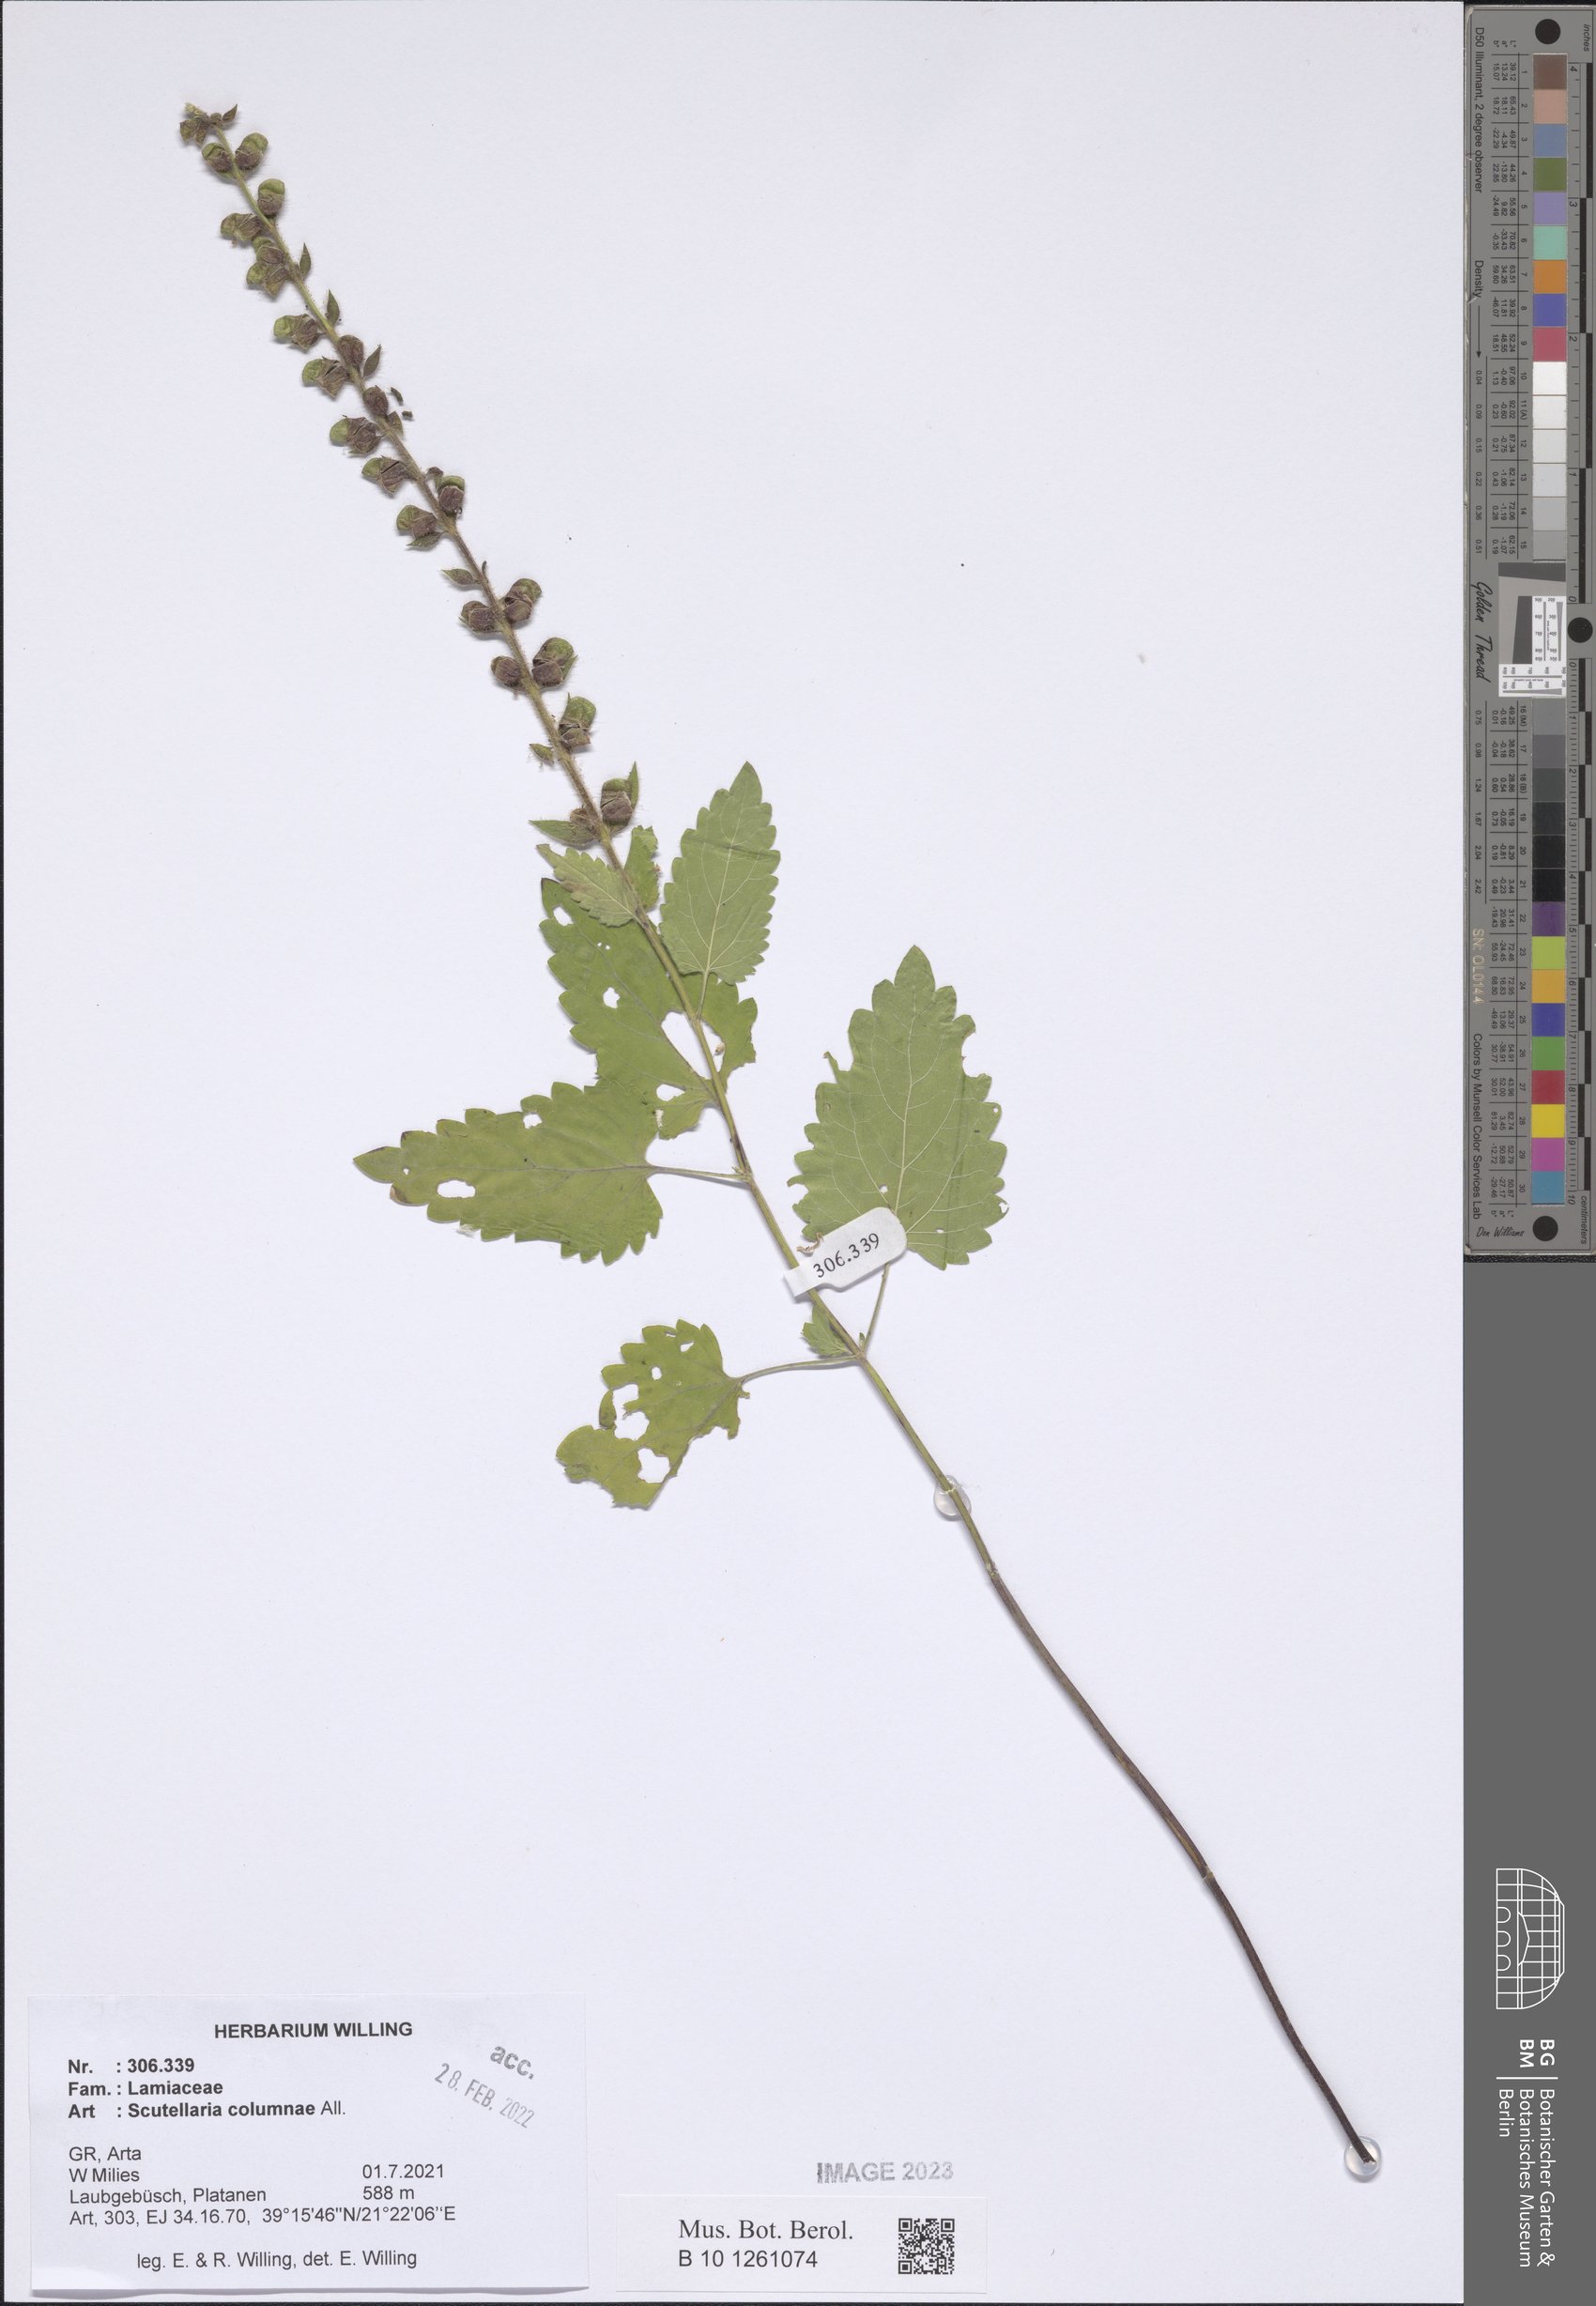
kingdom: Plantae
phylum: Tracheophyta
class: Magnoliopsida
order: Lamiales
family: Lamiaceae
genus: Scutellaria
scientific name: Scutellaria columnae
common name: Large skullcap
